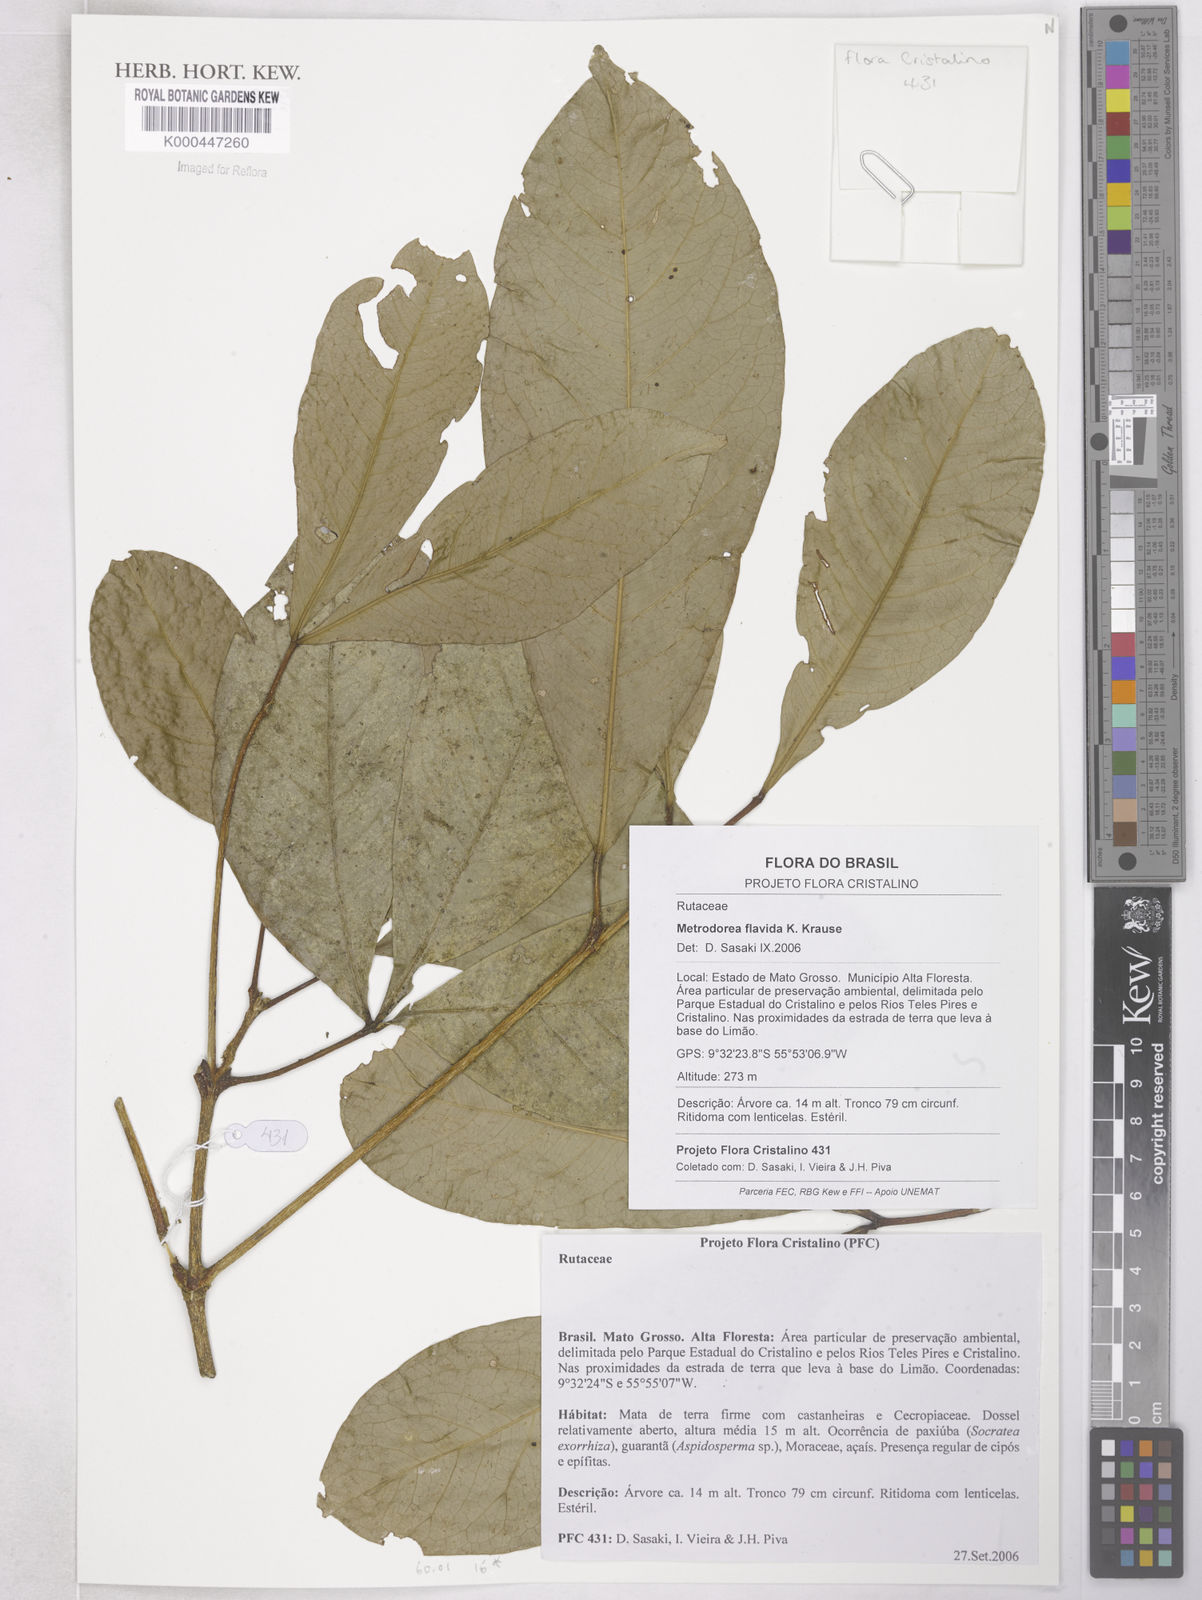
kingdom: Plantae
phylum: Tracheophyta
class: Magnoliopsida
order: Sapindales
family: Rutaceae
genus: Metrodorea
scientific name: Metrodorea flavida
